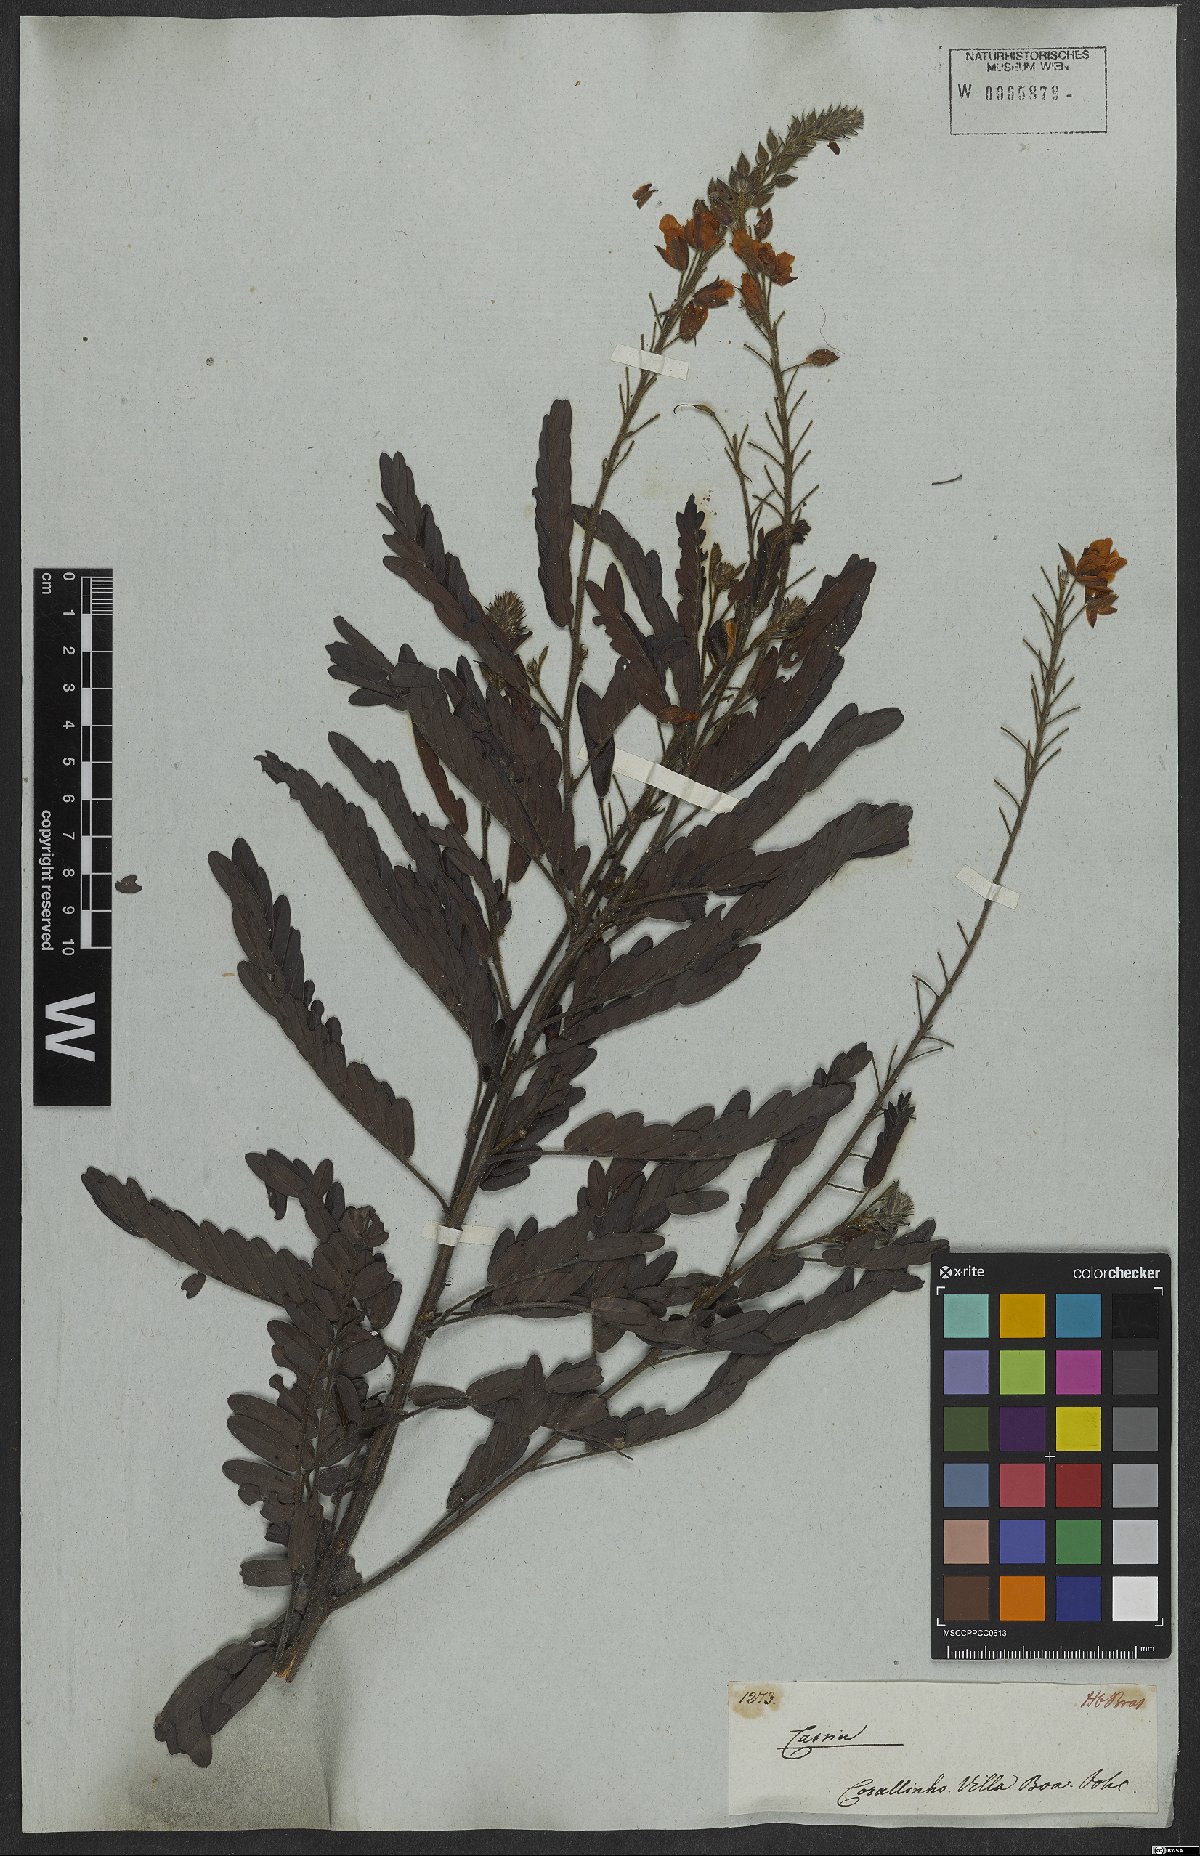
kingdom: Plantae
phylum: Tracheophyta
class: Magnoliopsida
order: Fabales
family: Fabaceae
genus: Chamaecrista
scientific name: Chamaecrista bracteolata
